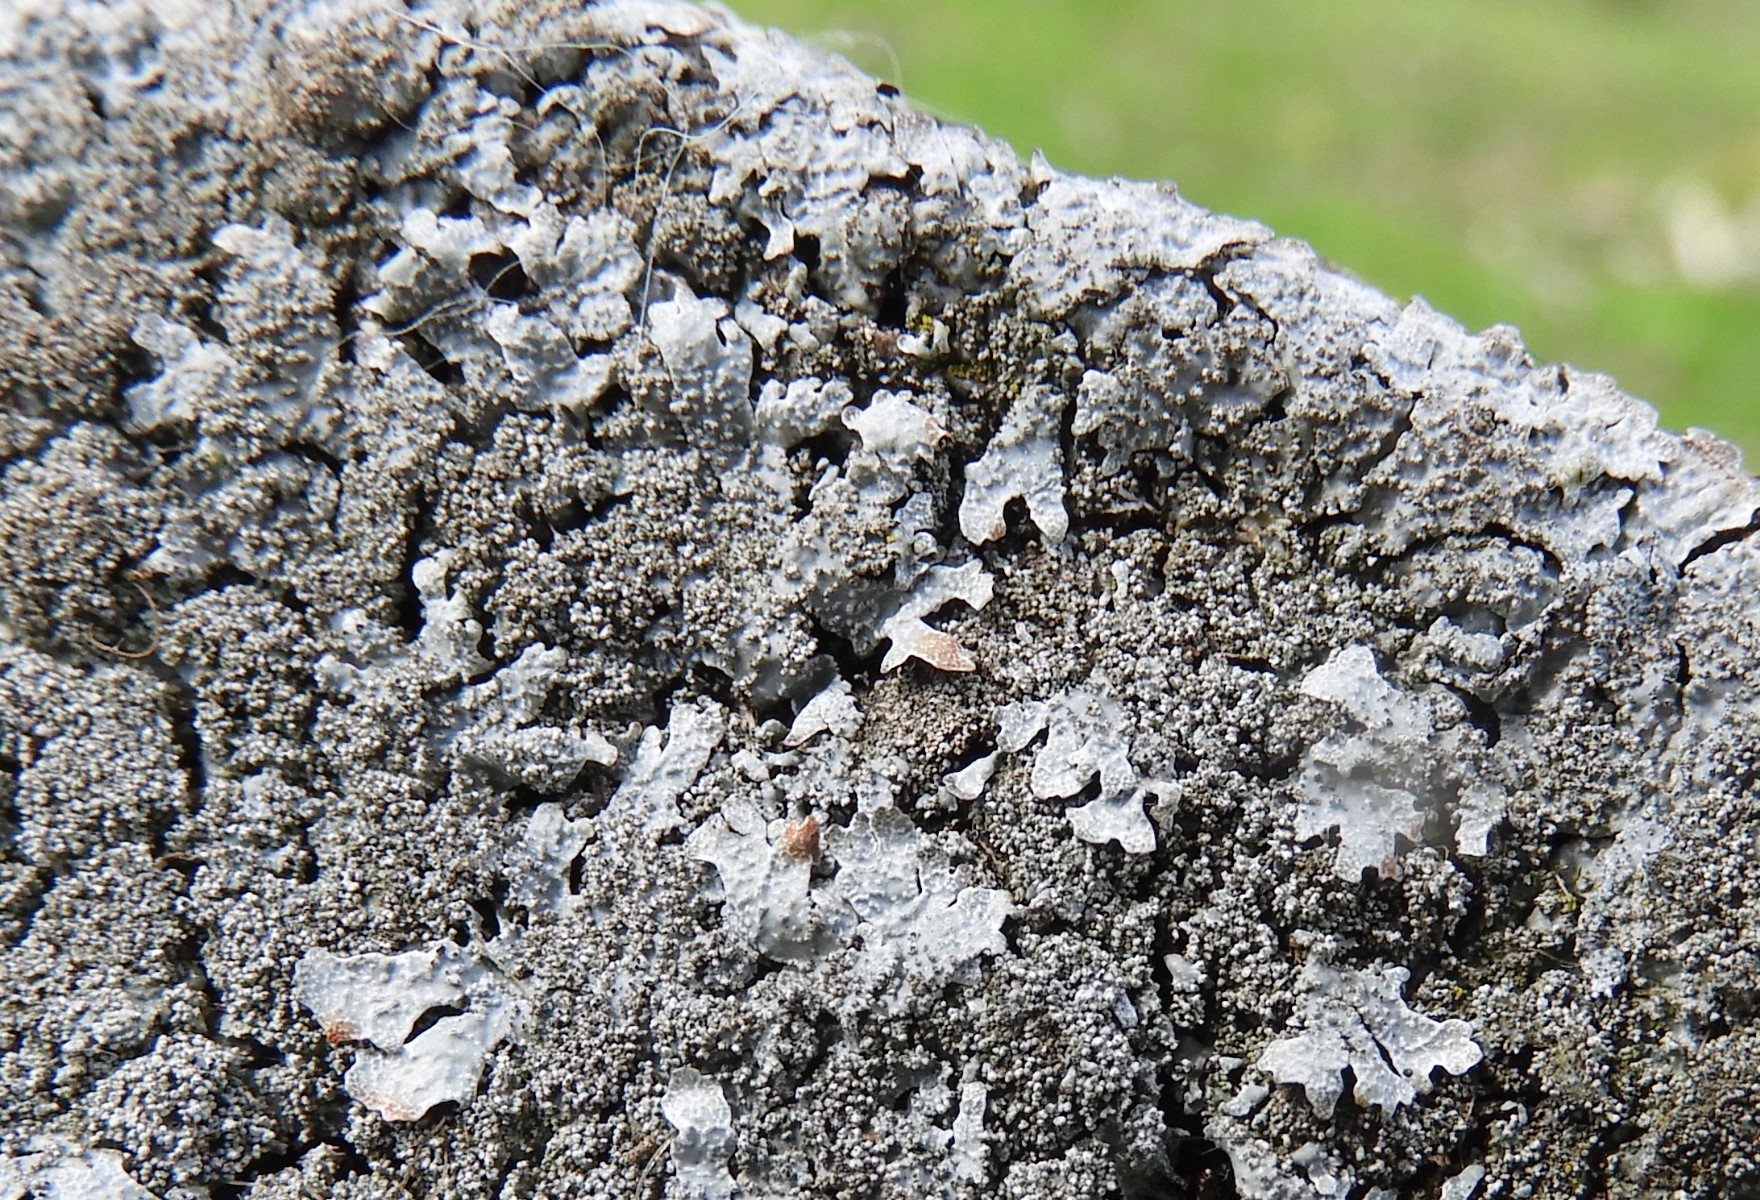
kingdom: Fungi
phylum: Ascomycota
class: Lecanoromycetes
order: Lecanorales
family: Parmeliaceae
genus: Parmelia
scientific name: Parmelia saxatilis
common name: farve-skållav
